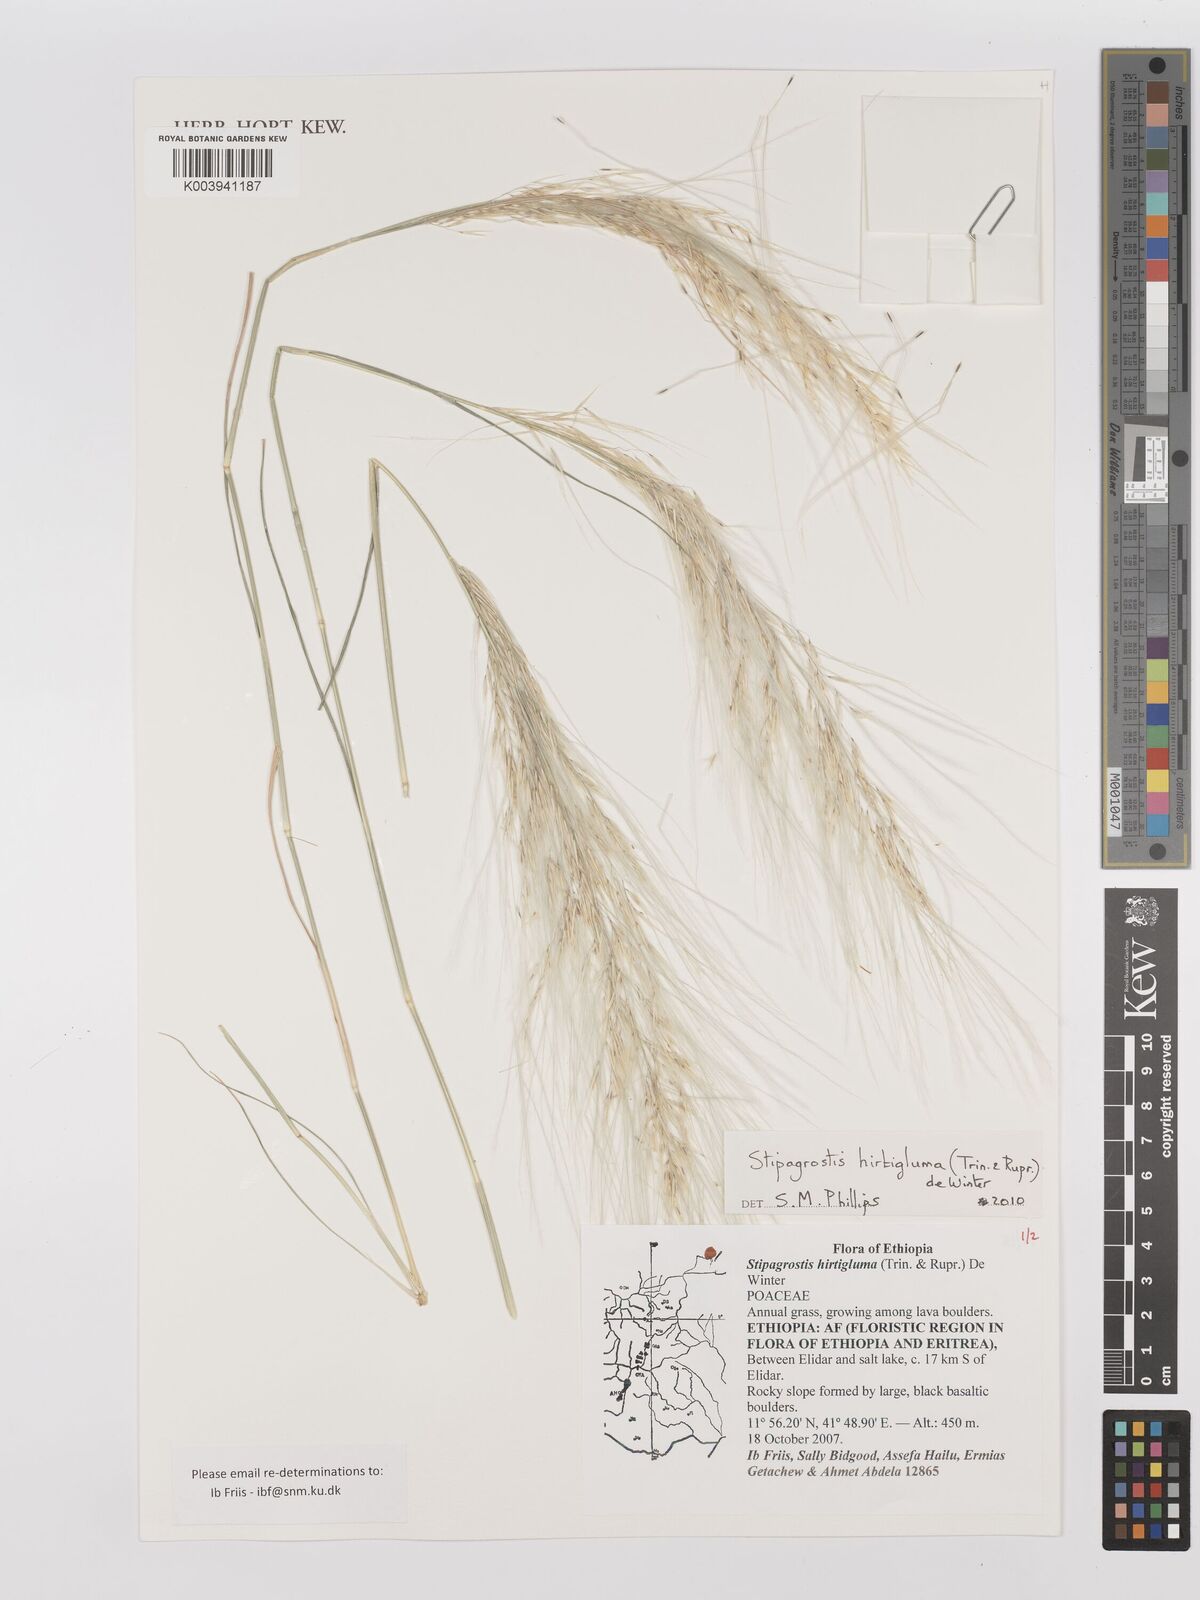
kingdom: Plantae
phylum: Tracheophyta
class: Liliopsida
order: Poales
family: Poaceae
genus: Stipagrostis
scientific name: Stipagrostis hirtigluma
